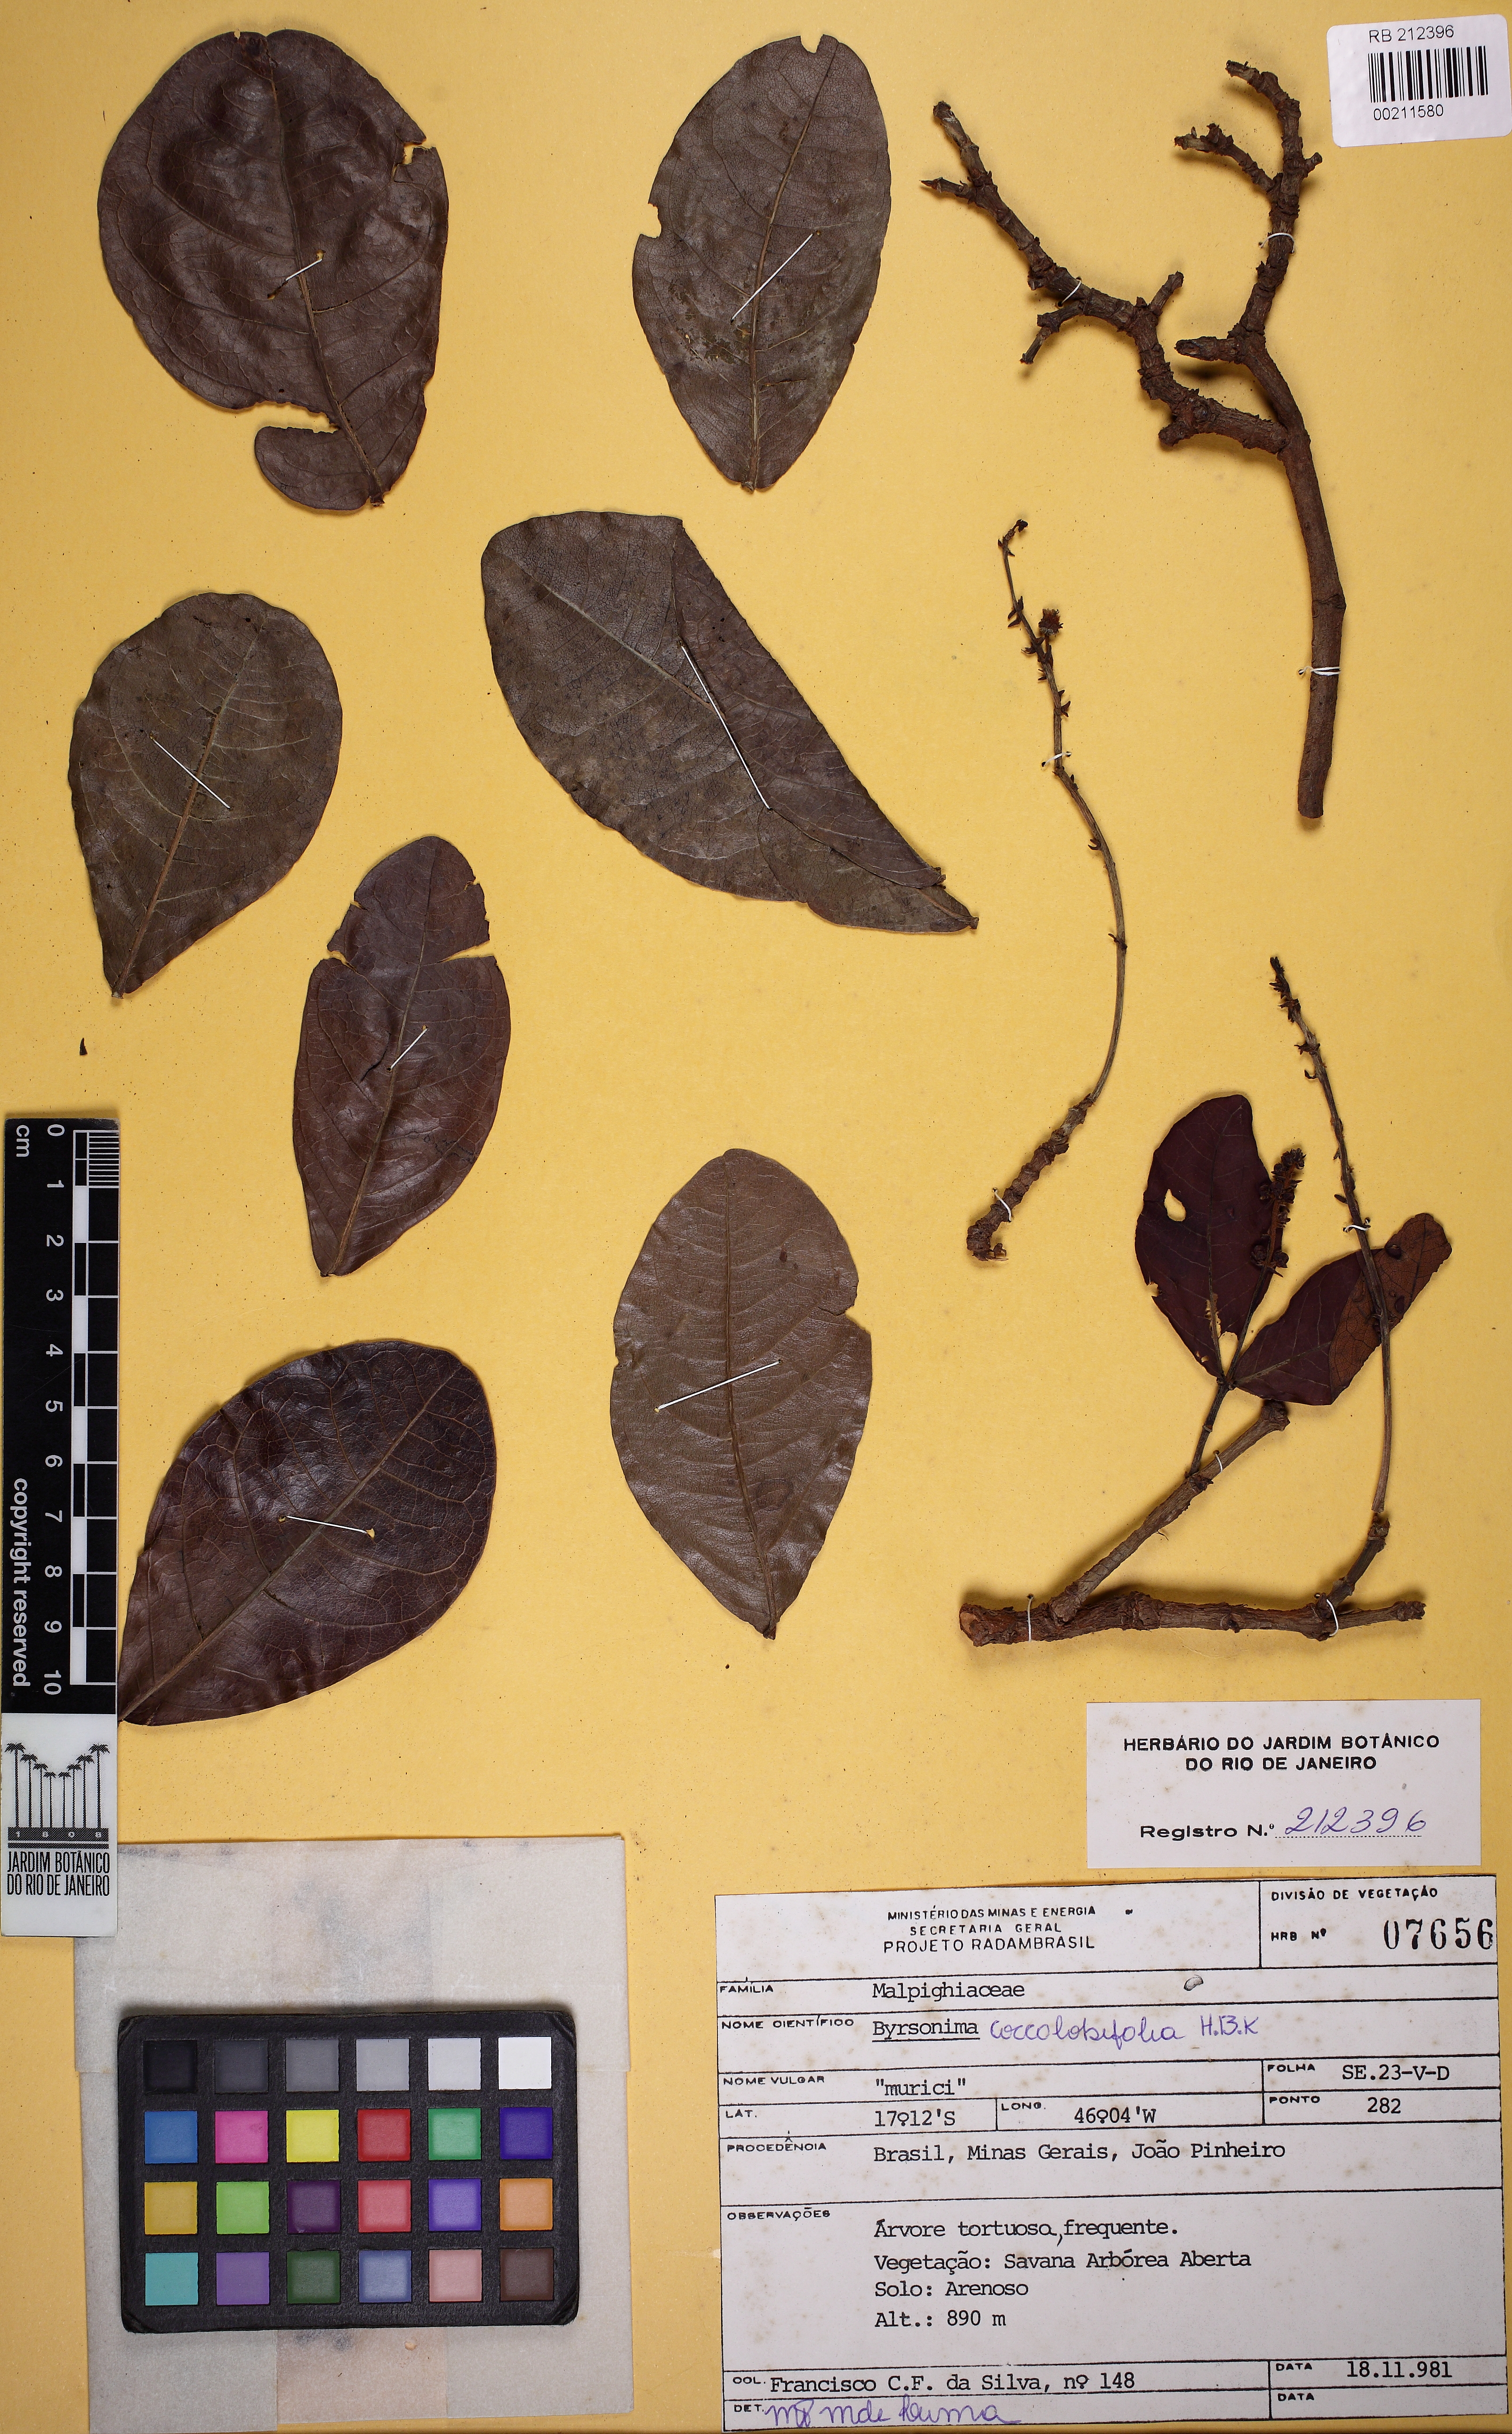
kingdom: Plantae
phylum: Tracheophyta
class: Magnoliopsida
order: Malpighiales
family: Malpighiaceae
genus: Byrsonima
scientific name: Byrsonima coccolobifolia
